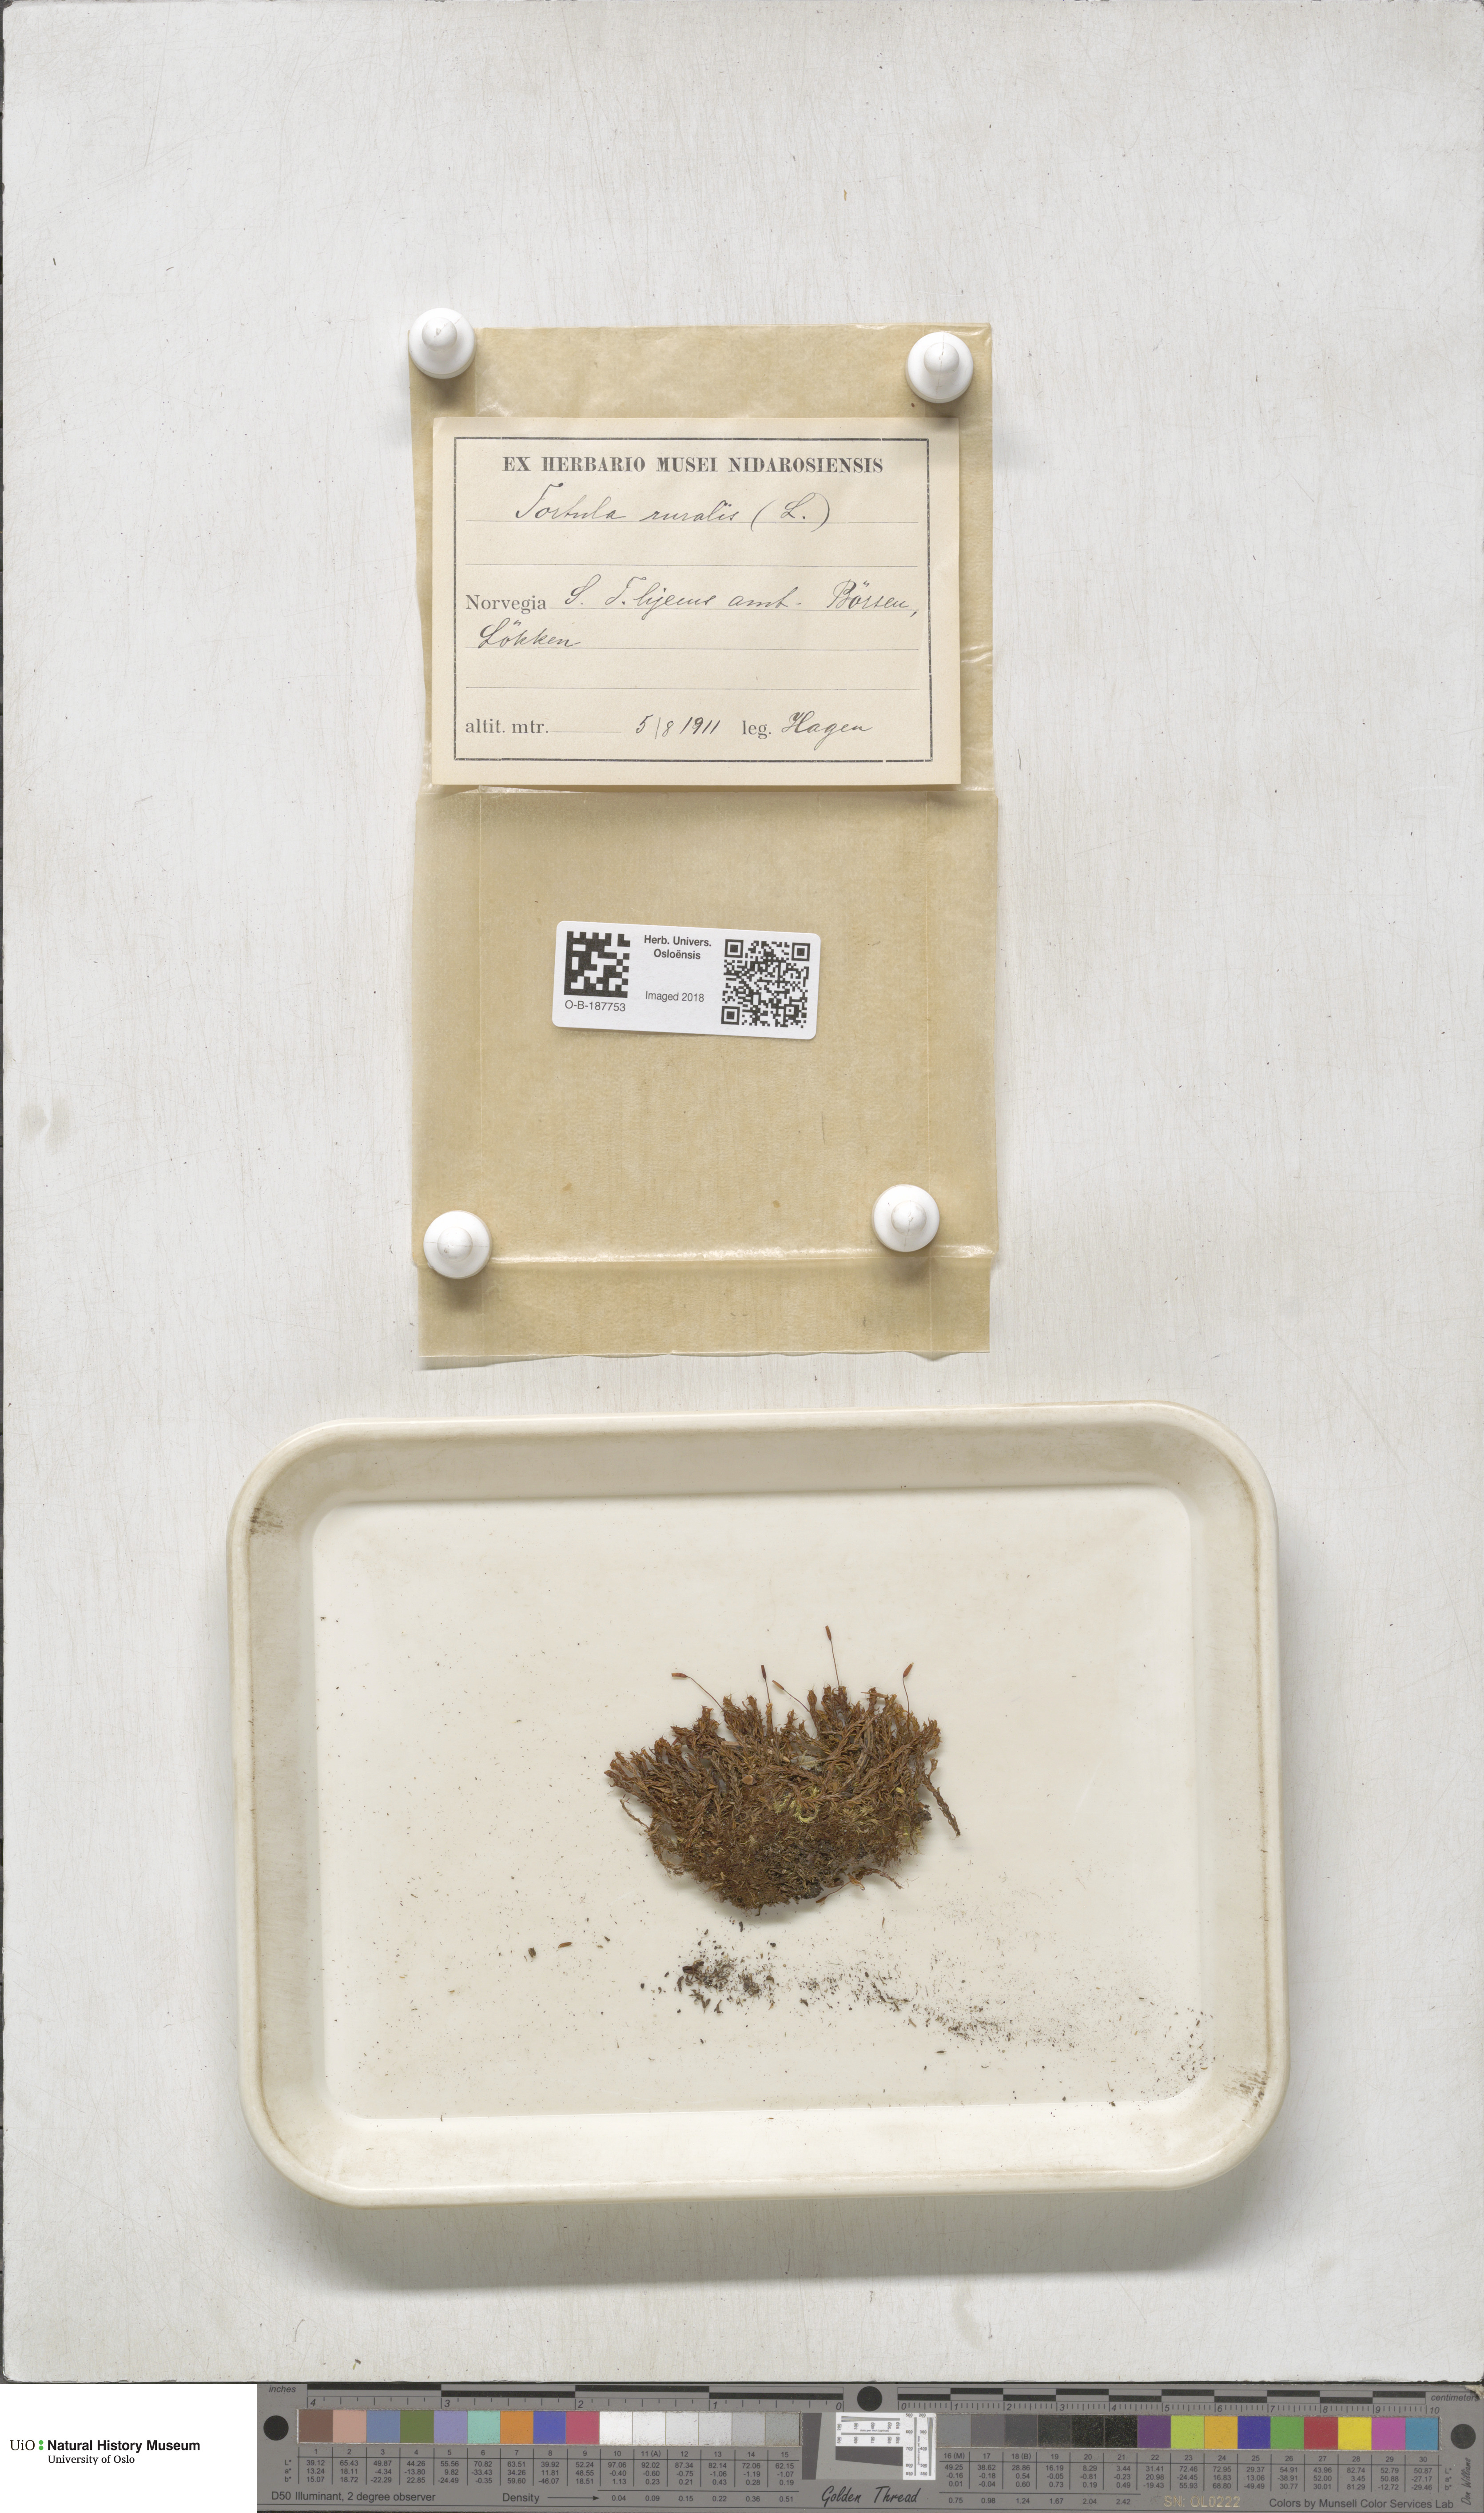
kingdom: Plantae
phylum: Bryophyta
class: Bryopsida
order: Pottiales
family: Pottiaceae
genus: Syntrichia
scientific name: Syntrichia ruralis
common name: Sidewalk screw moss
